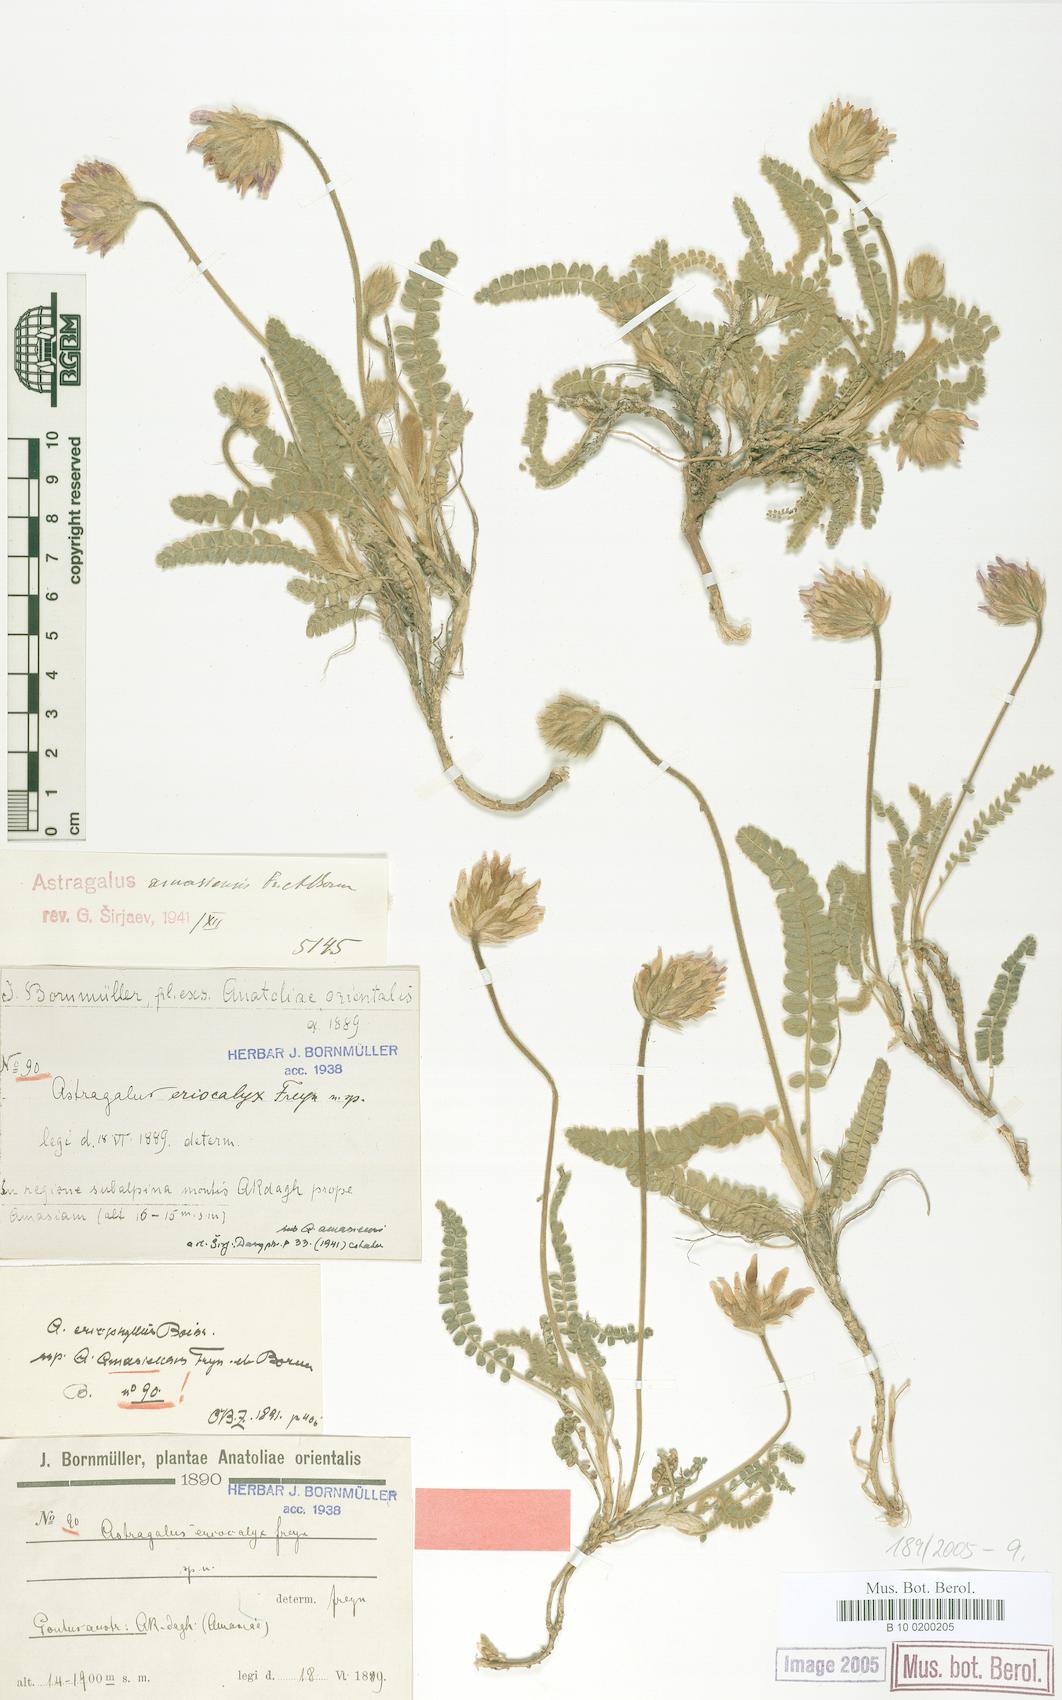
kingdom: Plantae
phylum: Tracheophyta
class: Magnoliopsida
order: Fabales
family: Fabaceae
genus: Astragalus
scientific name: Astragalus densifolius
